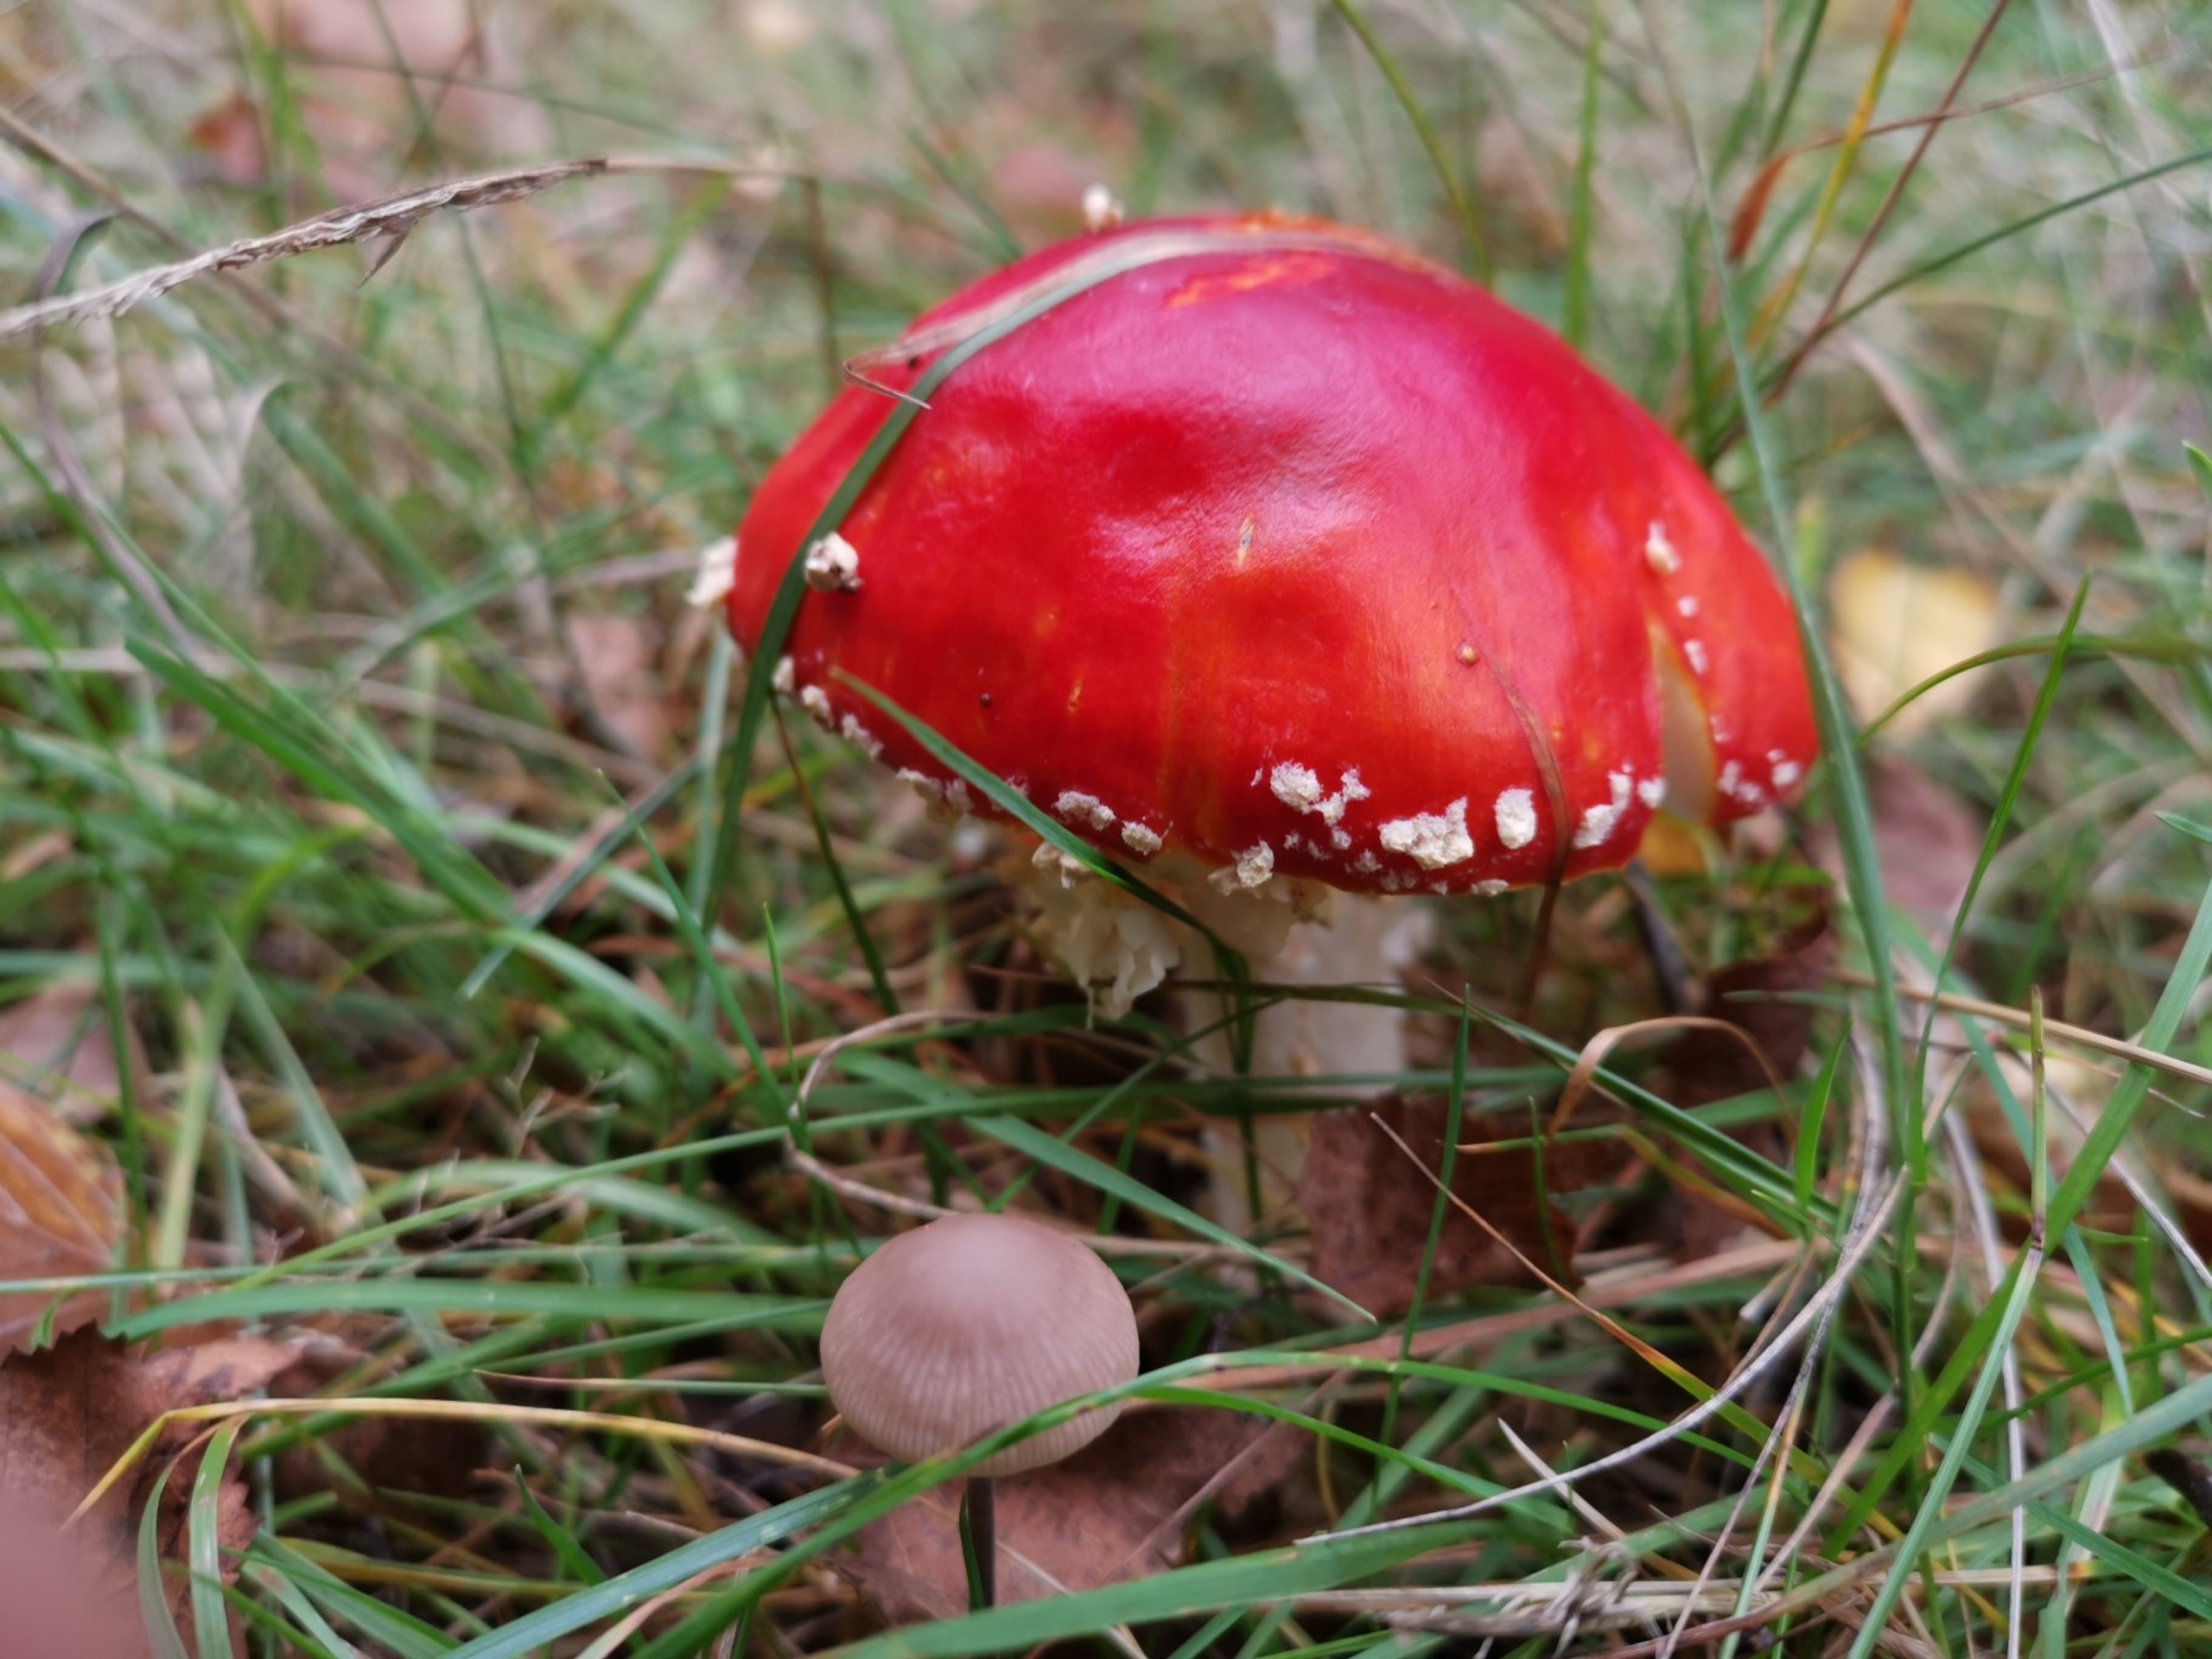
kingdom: Fungi
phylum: Basidiomycota
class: Agaricomycetes
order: Agaricales
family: Amanitaceae
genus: Amanita
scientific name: Amanita muscaria
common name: Rød fluesvamp
